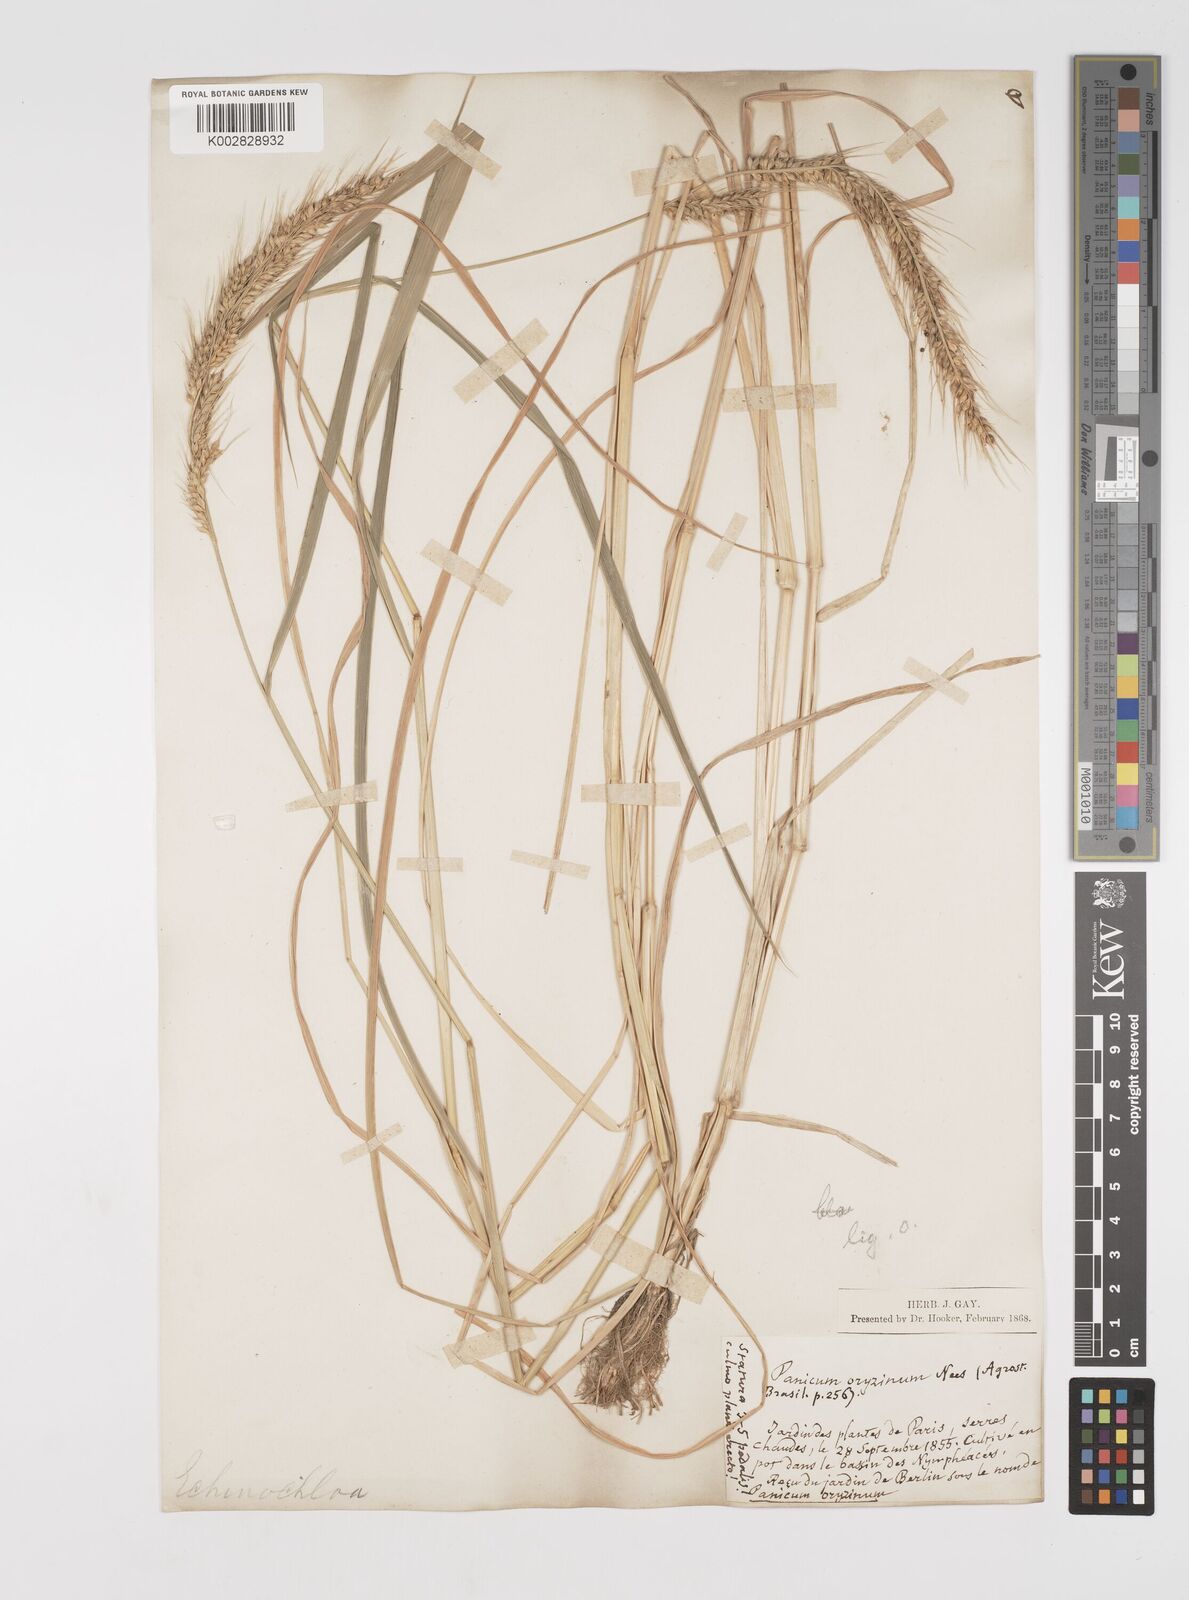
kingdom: Plantae
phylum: Tracheophyta
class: Liliopsida
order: Poales
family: Poaceae
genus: Echinochloa
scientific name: Echinochloa oryzoides
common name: Early water grass
